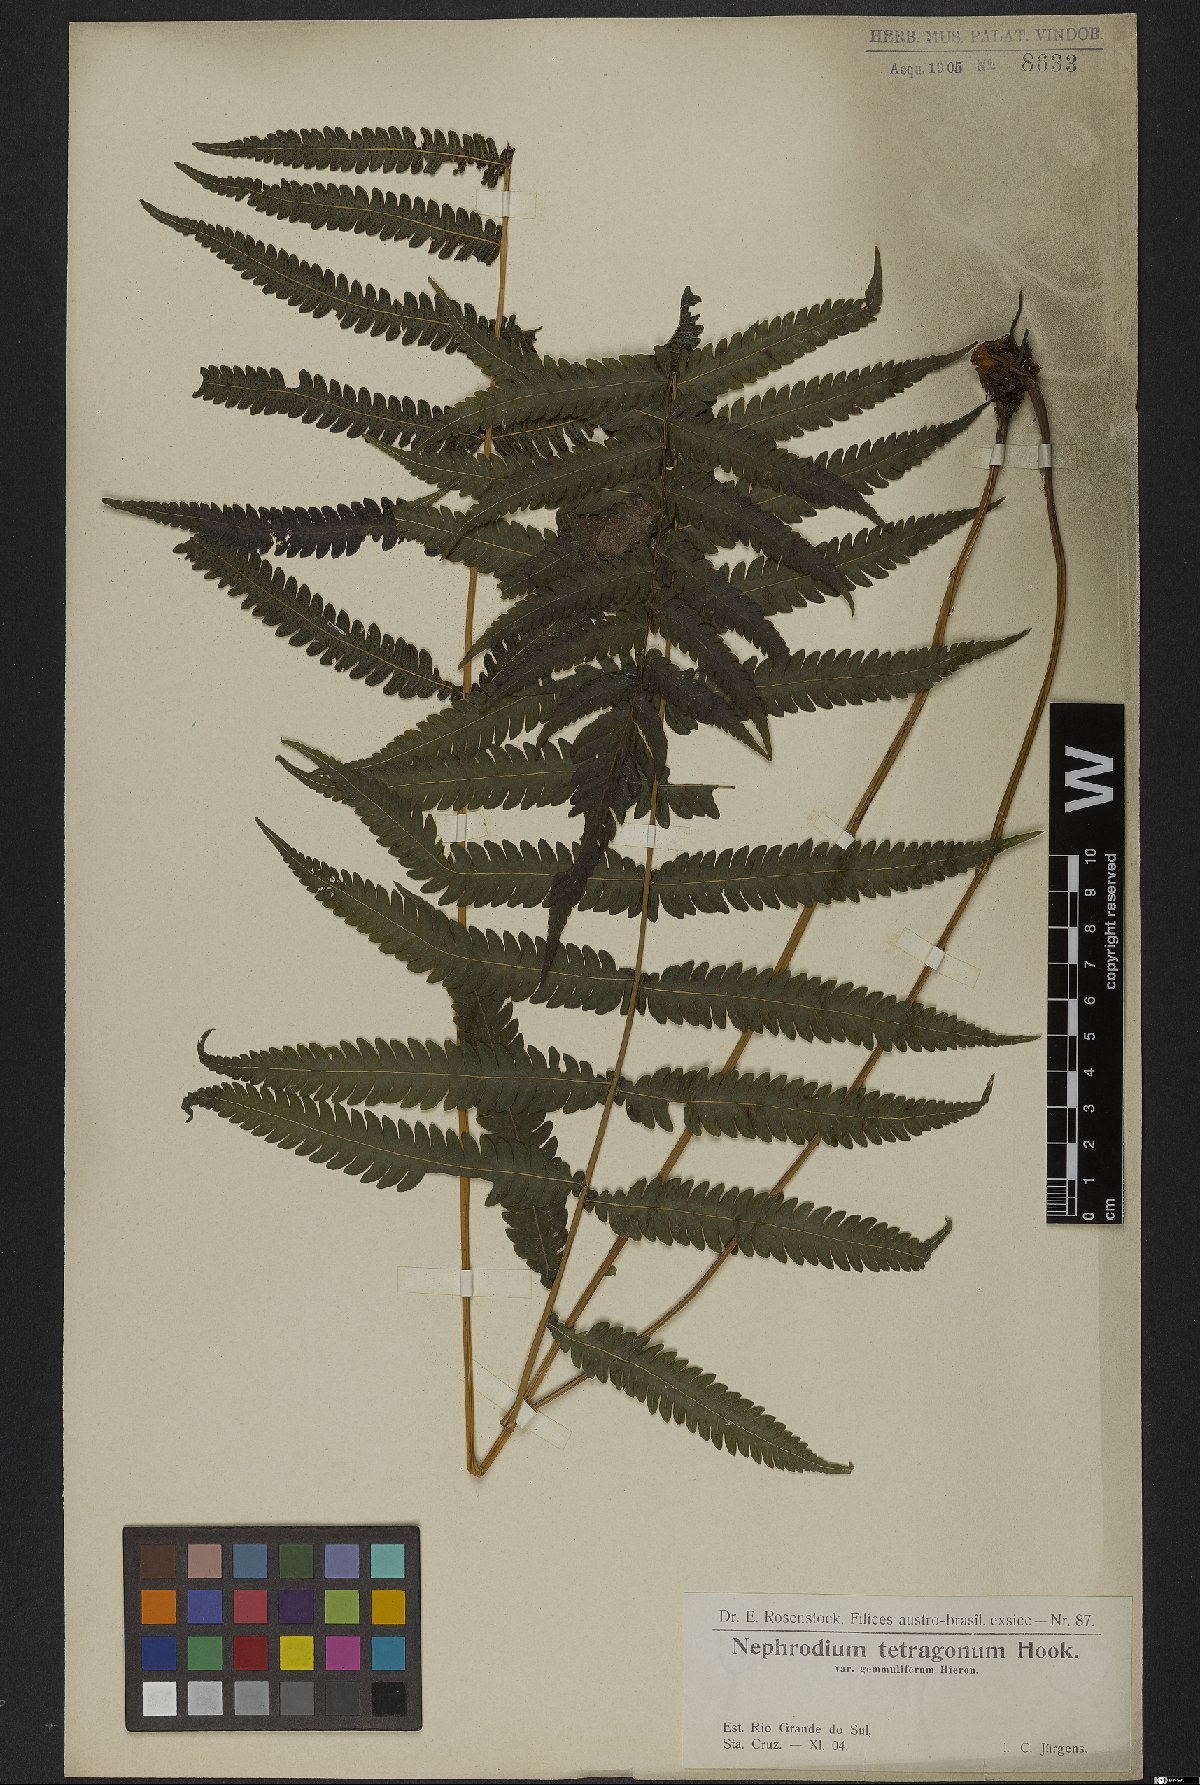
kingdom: Plantae
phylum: Tracheophyta
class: Polypodiopsida
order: Polypodiales
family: Thelypteridaceae
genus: Goniopteris
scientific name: Goniopteris lugubris
